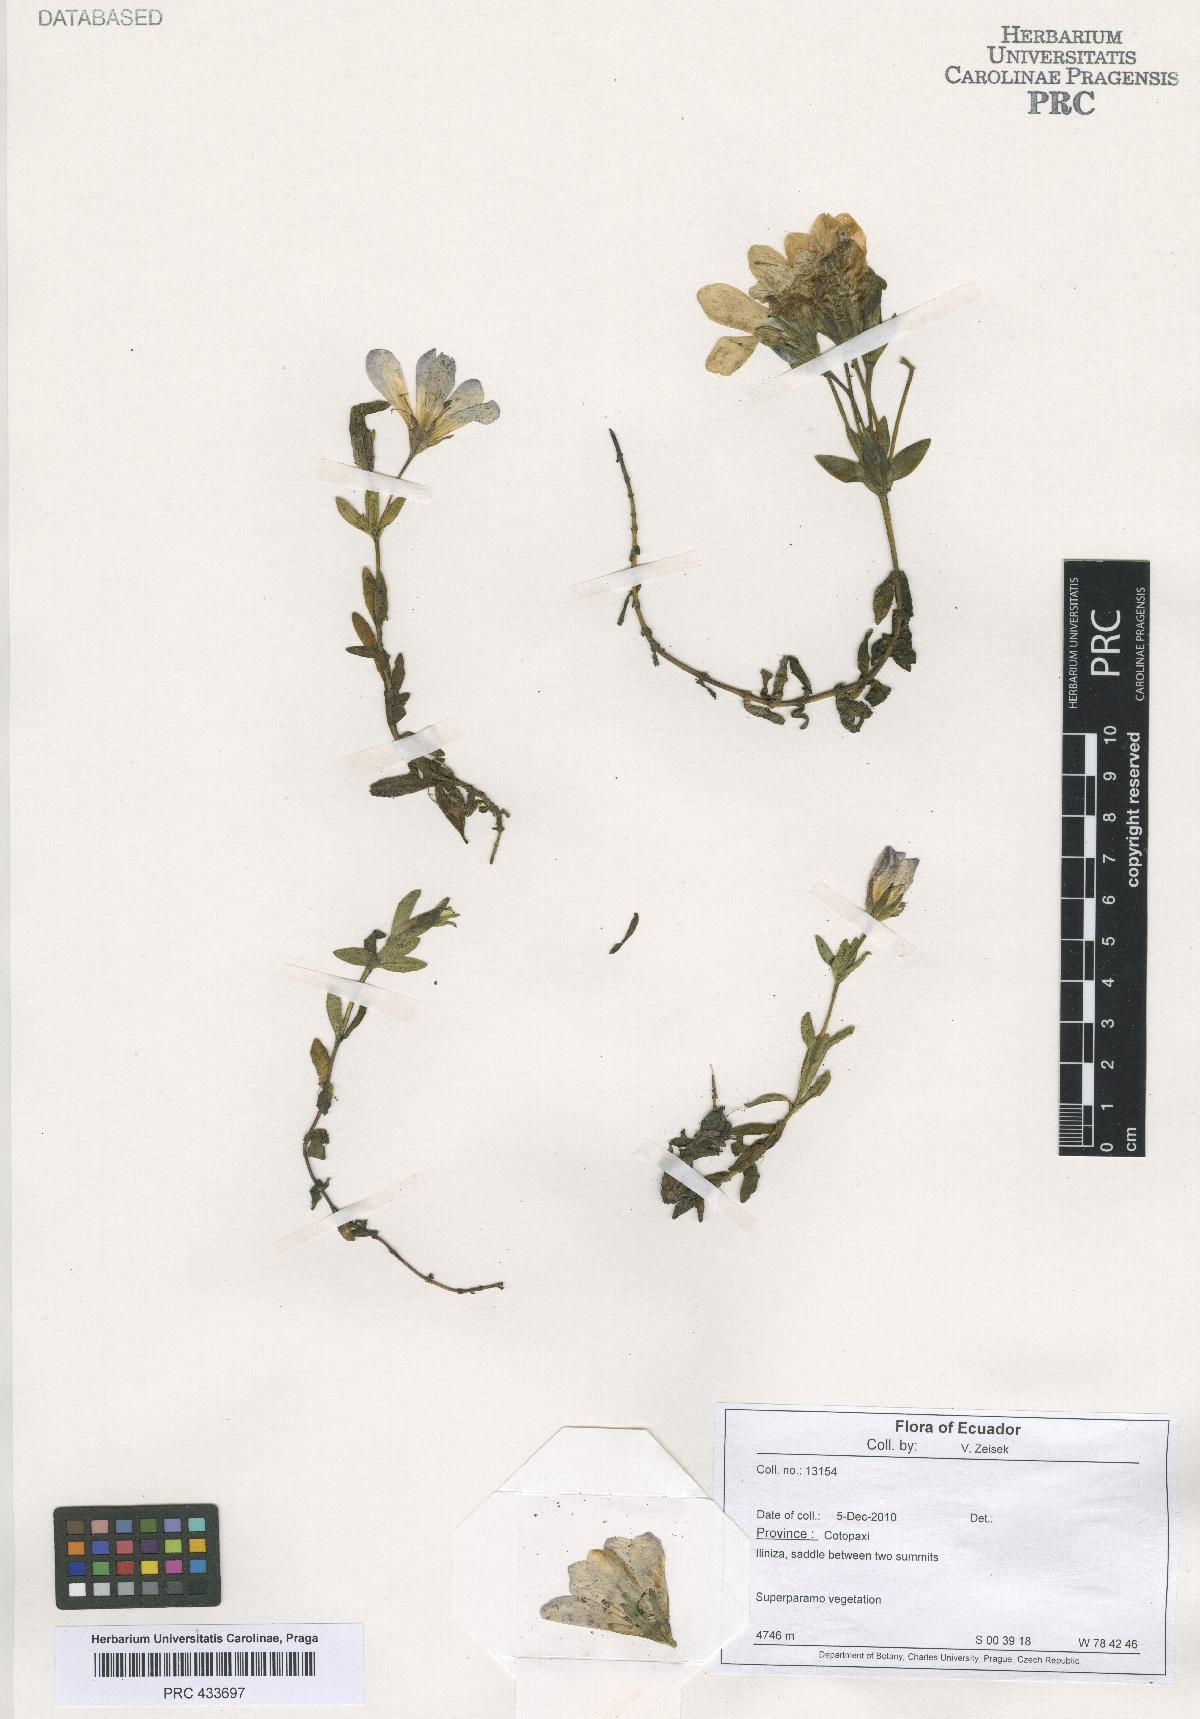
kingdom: Plantae
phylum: Tracheophyta
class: Magnoliopsida
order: Gentianales
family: Gentianaceae
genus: Halenia
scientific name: Halenia
